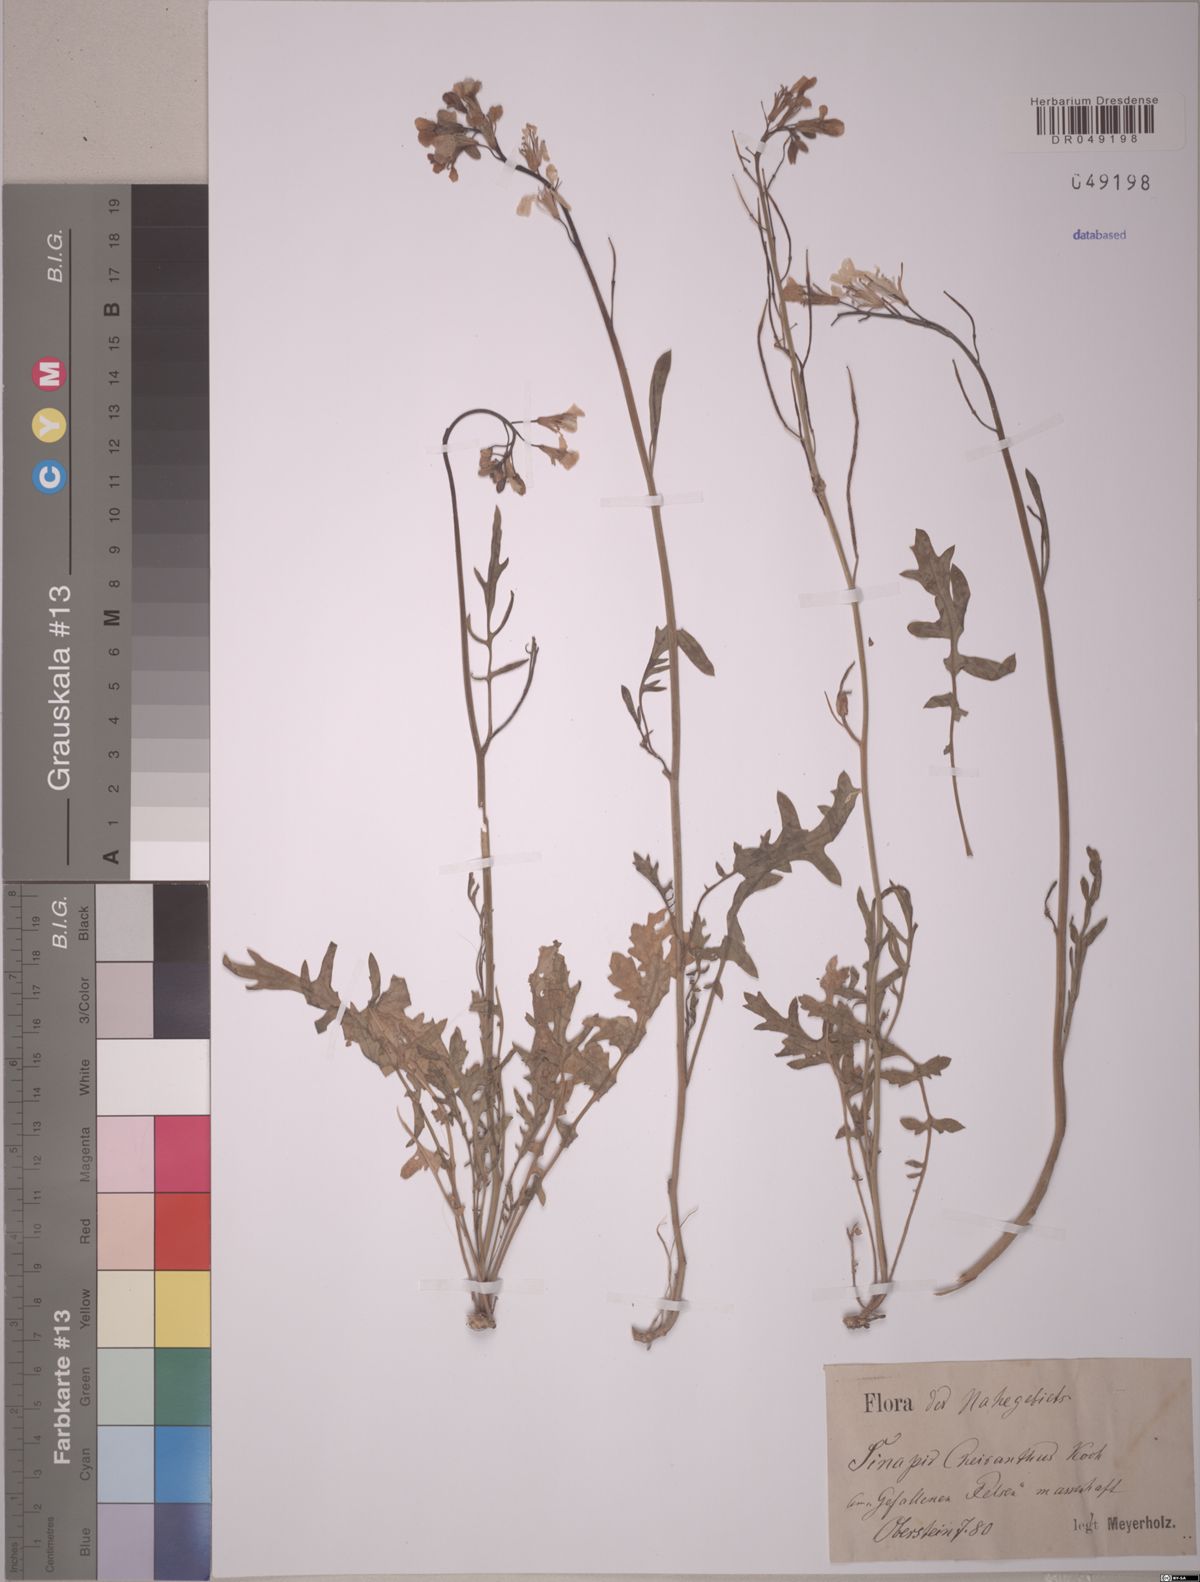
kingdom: Plantae
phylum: Tracheophyta
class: Magnoliopsida
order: Brassicales
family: Brassicaceae
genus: Coincya
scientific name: Coincya monensis
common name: Star-mustard
